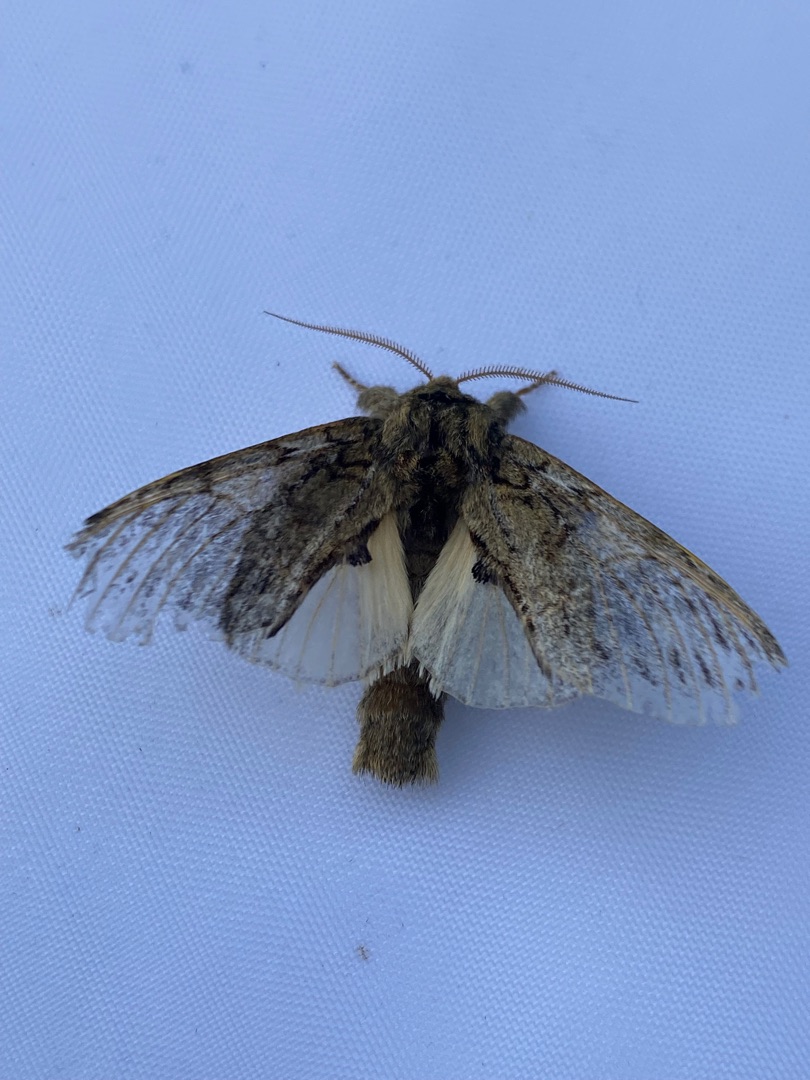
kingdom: Animalia
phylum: Arthropoda
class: Insecta
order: Lepidoptera
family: Notodontidae
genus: Peridea
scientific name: Peridea anceps
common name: Egetandspinder
